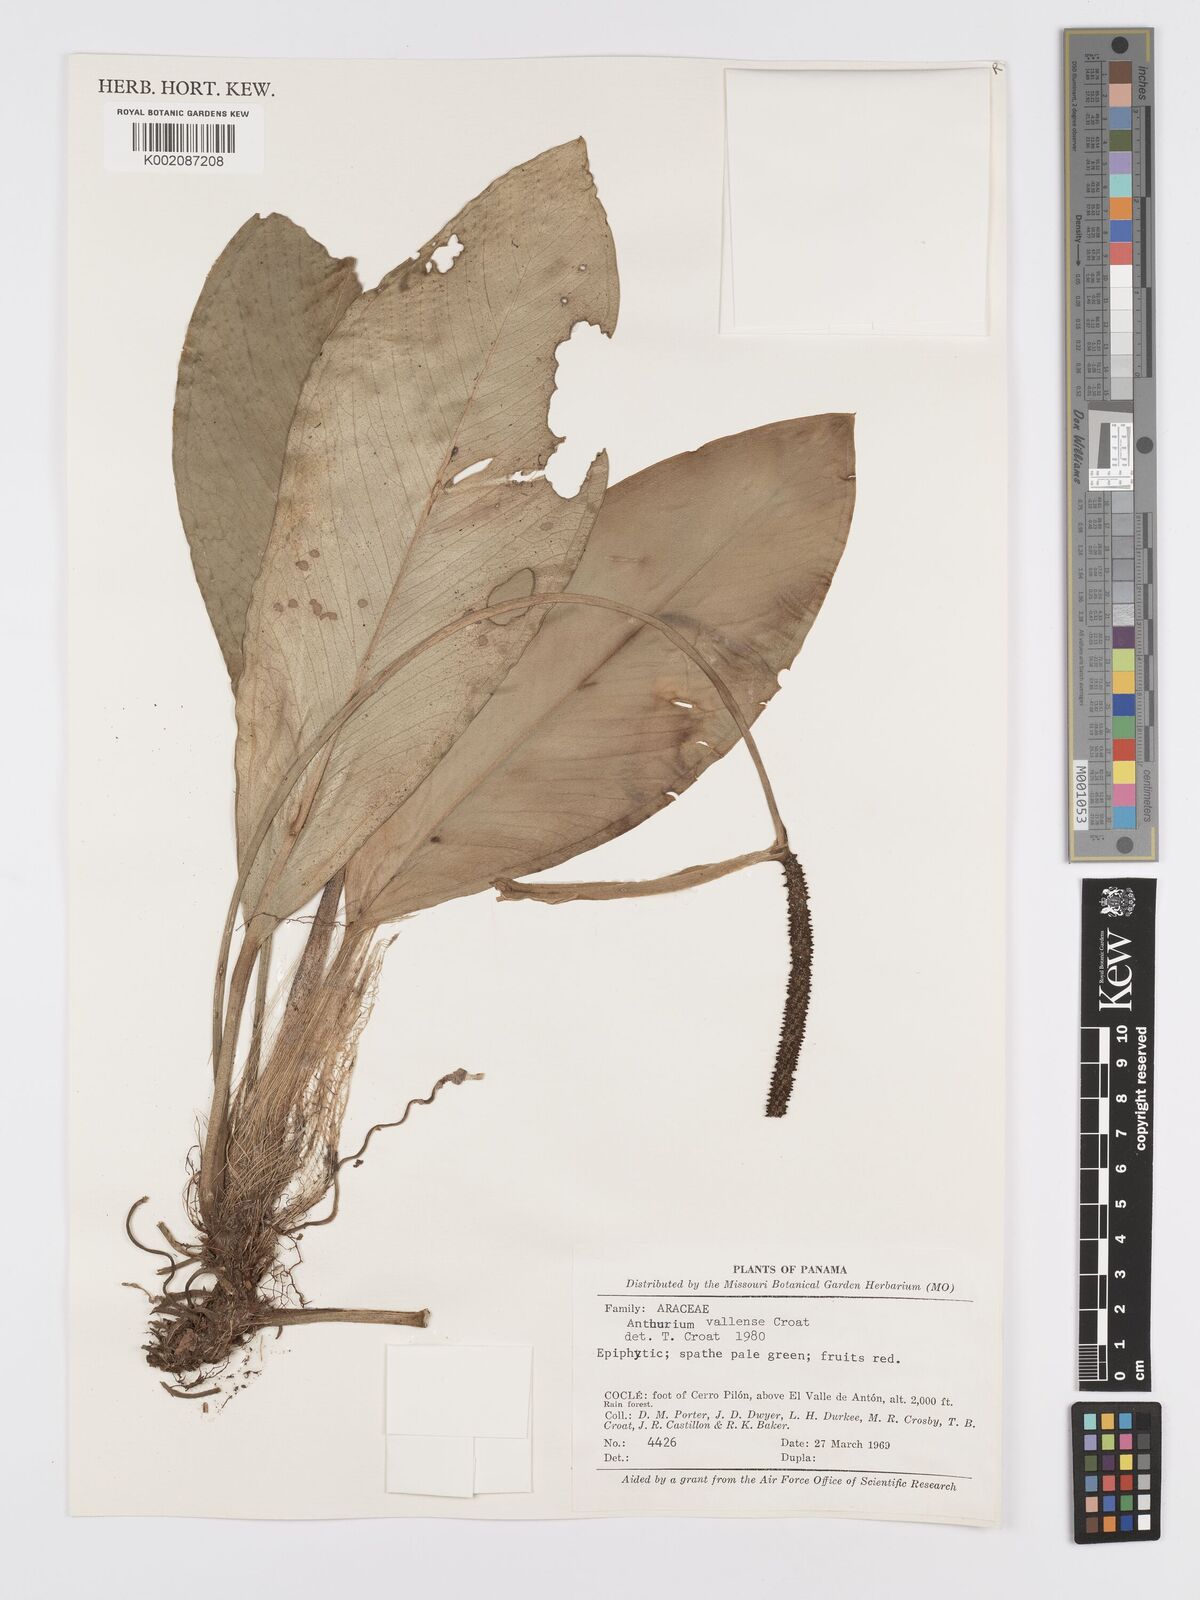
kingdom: Plantae
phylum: Tracheophyta
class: Liliopsida
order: Alismatales
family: Araceae
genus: Anthurium
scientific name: Anthurium vallense
